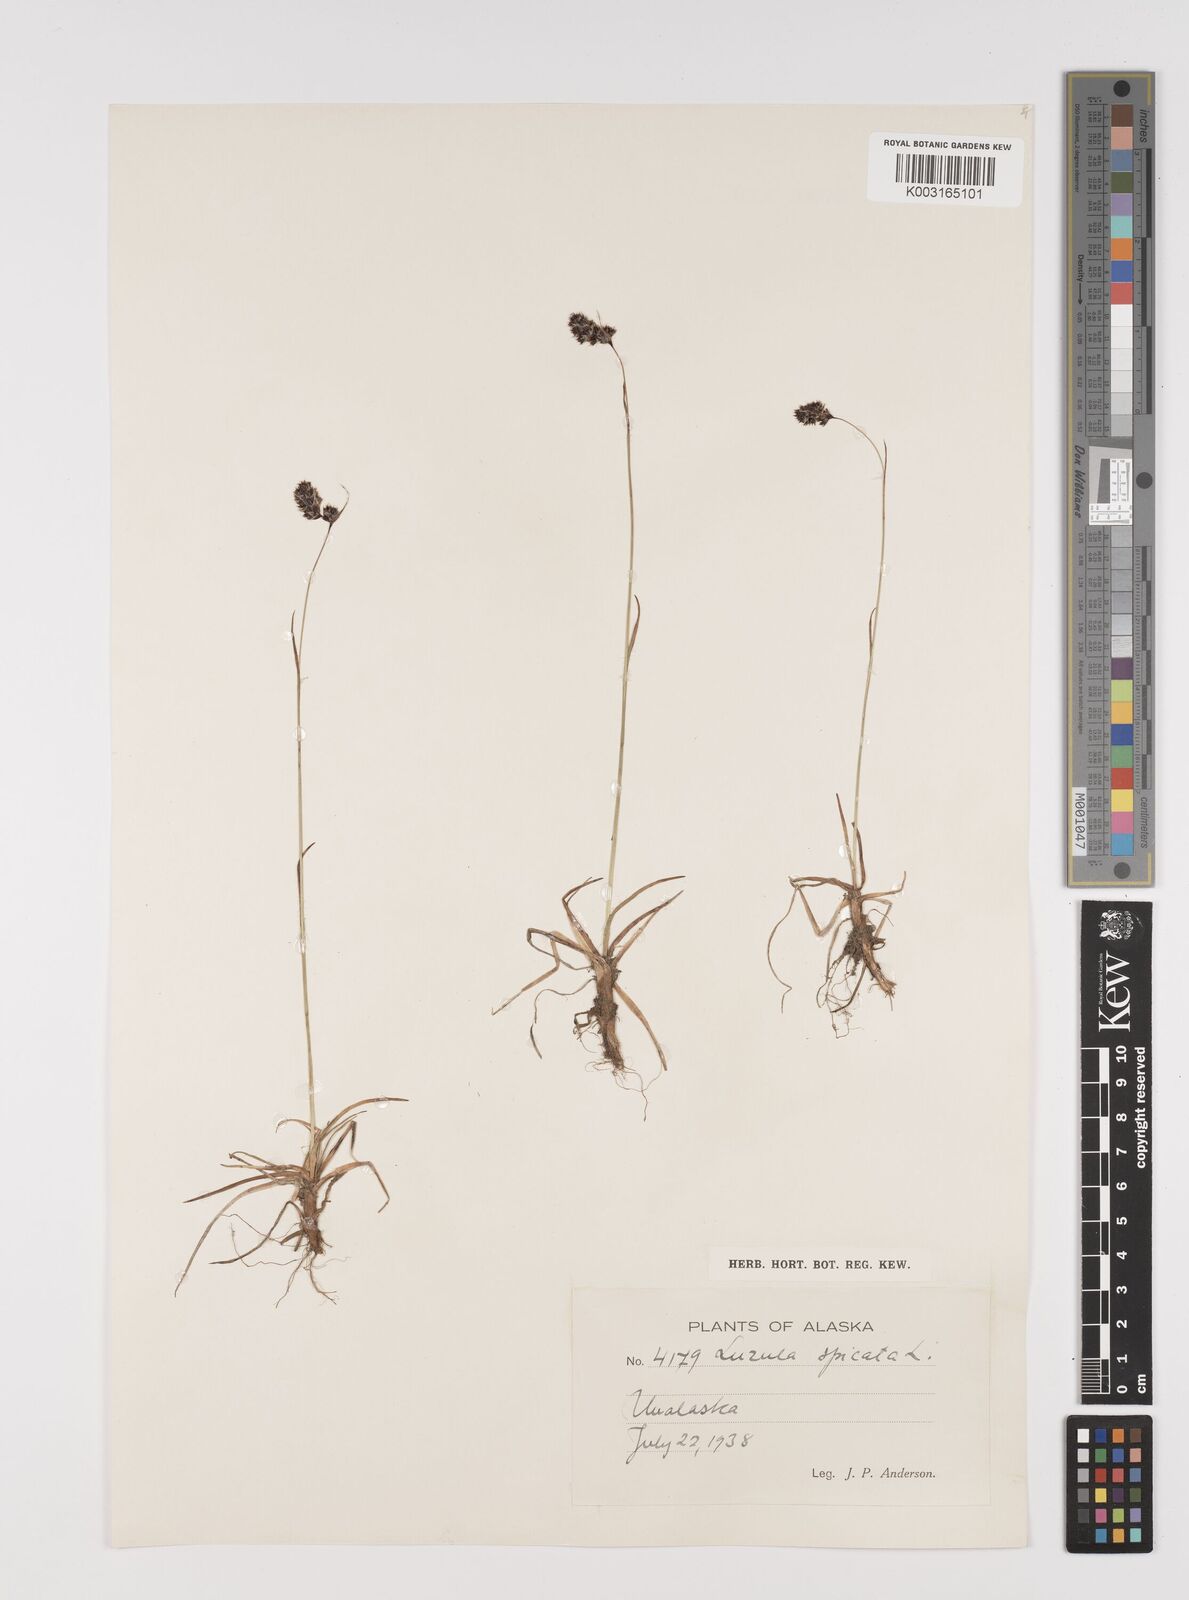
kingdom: Plantae
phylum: Tracheophyta
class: Liliopsida
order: Poales
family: Juncaceae
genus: Luzula
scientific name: Luzula spicata
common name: Spiked wood-rush
